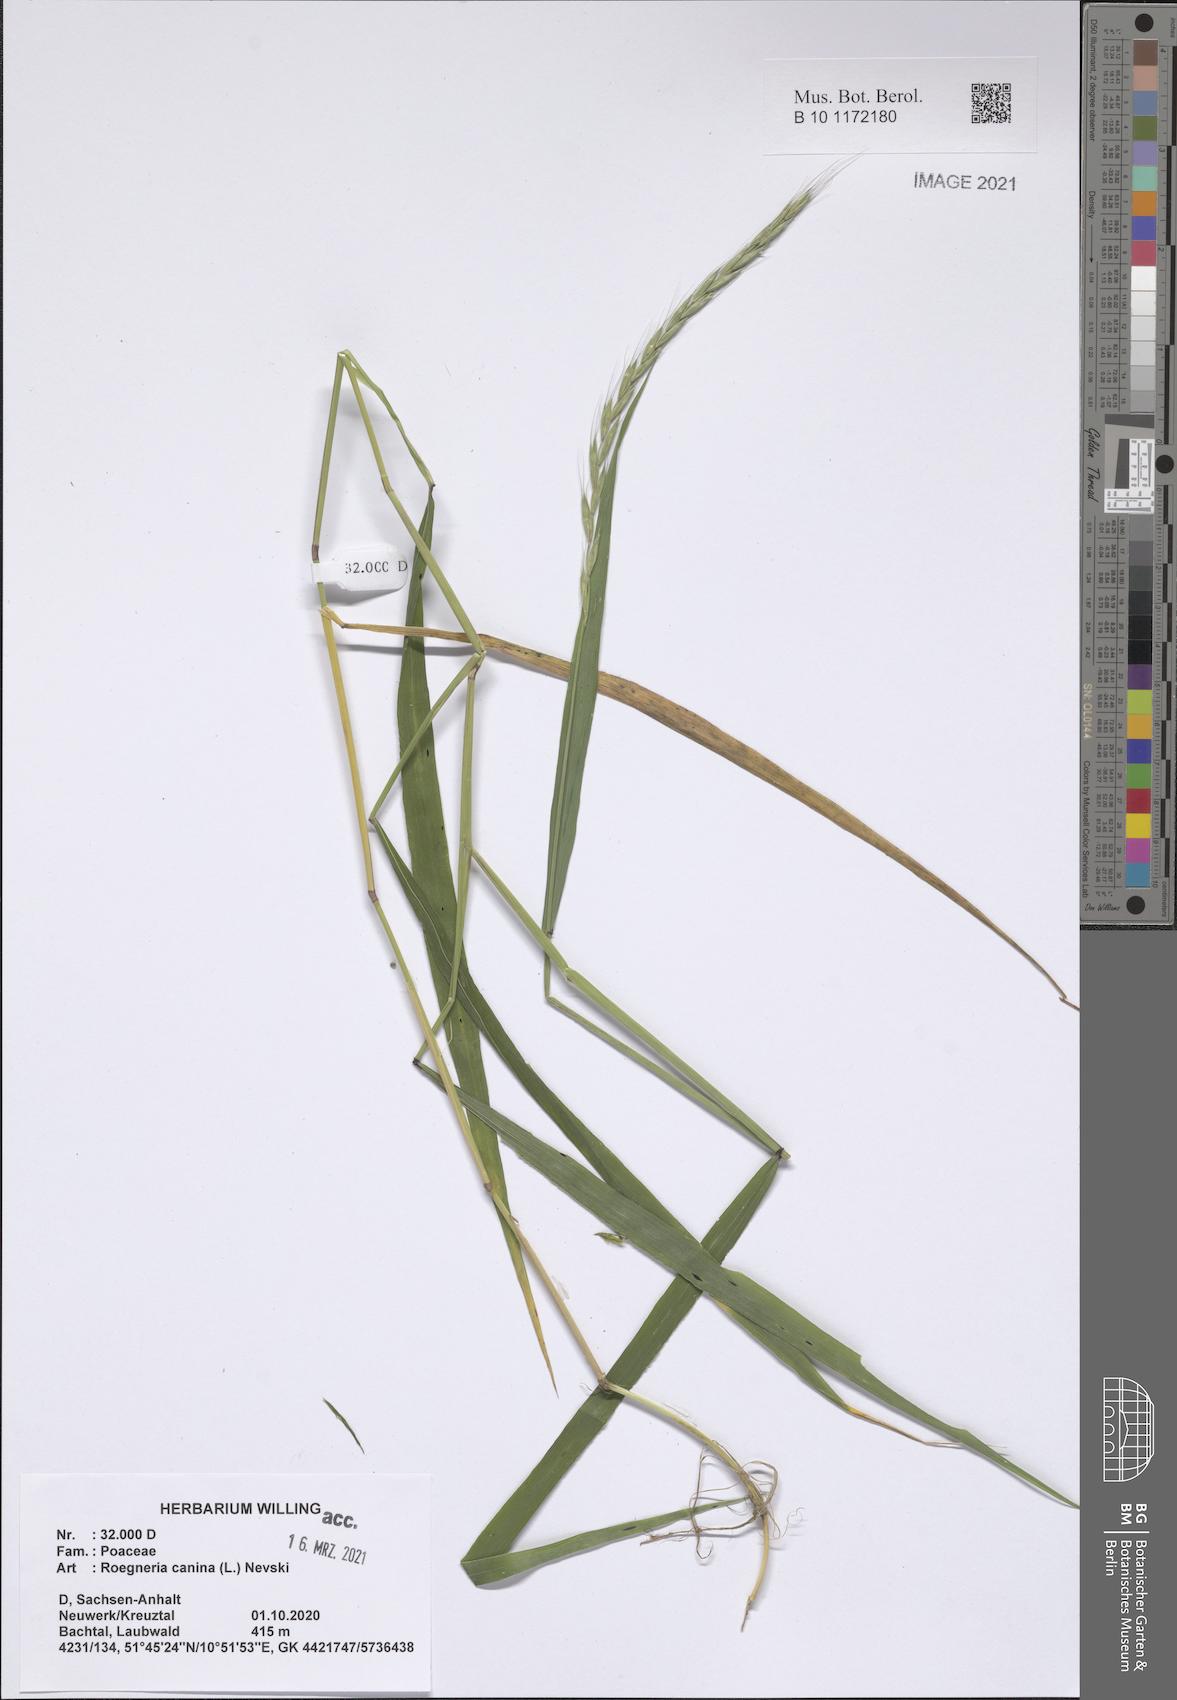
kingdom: Plantae
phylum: Tracheophyta
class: Liliopsida
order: Poales
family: Poaceae
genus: Elymus
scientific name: Elymus caninus
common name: Bearded couch
